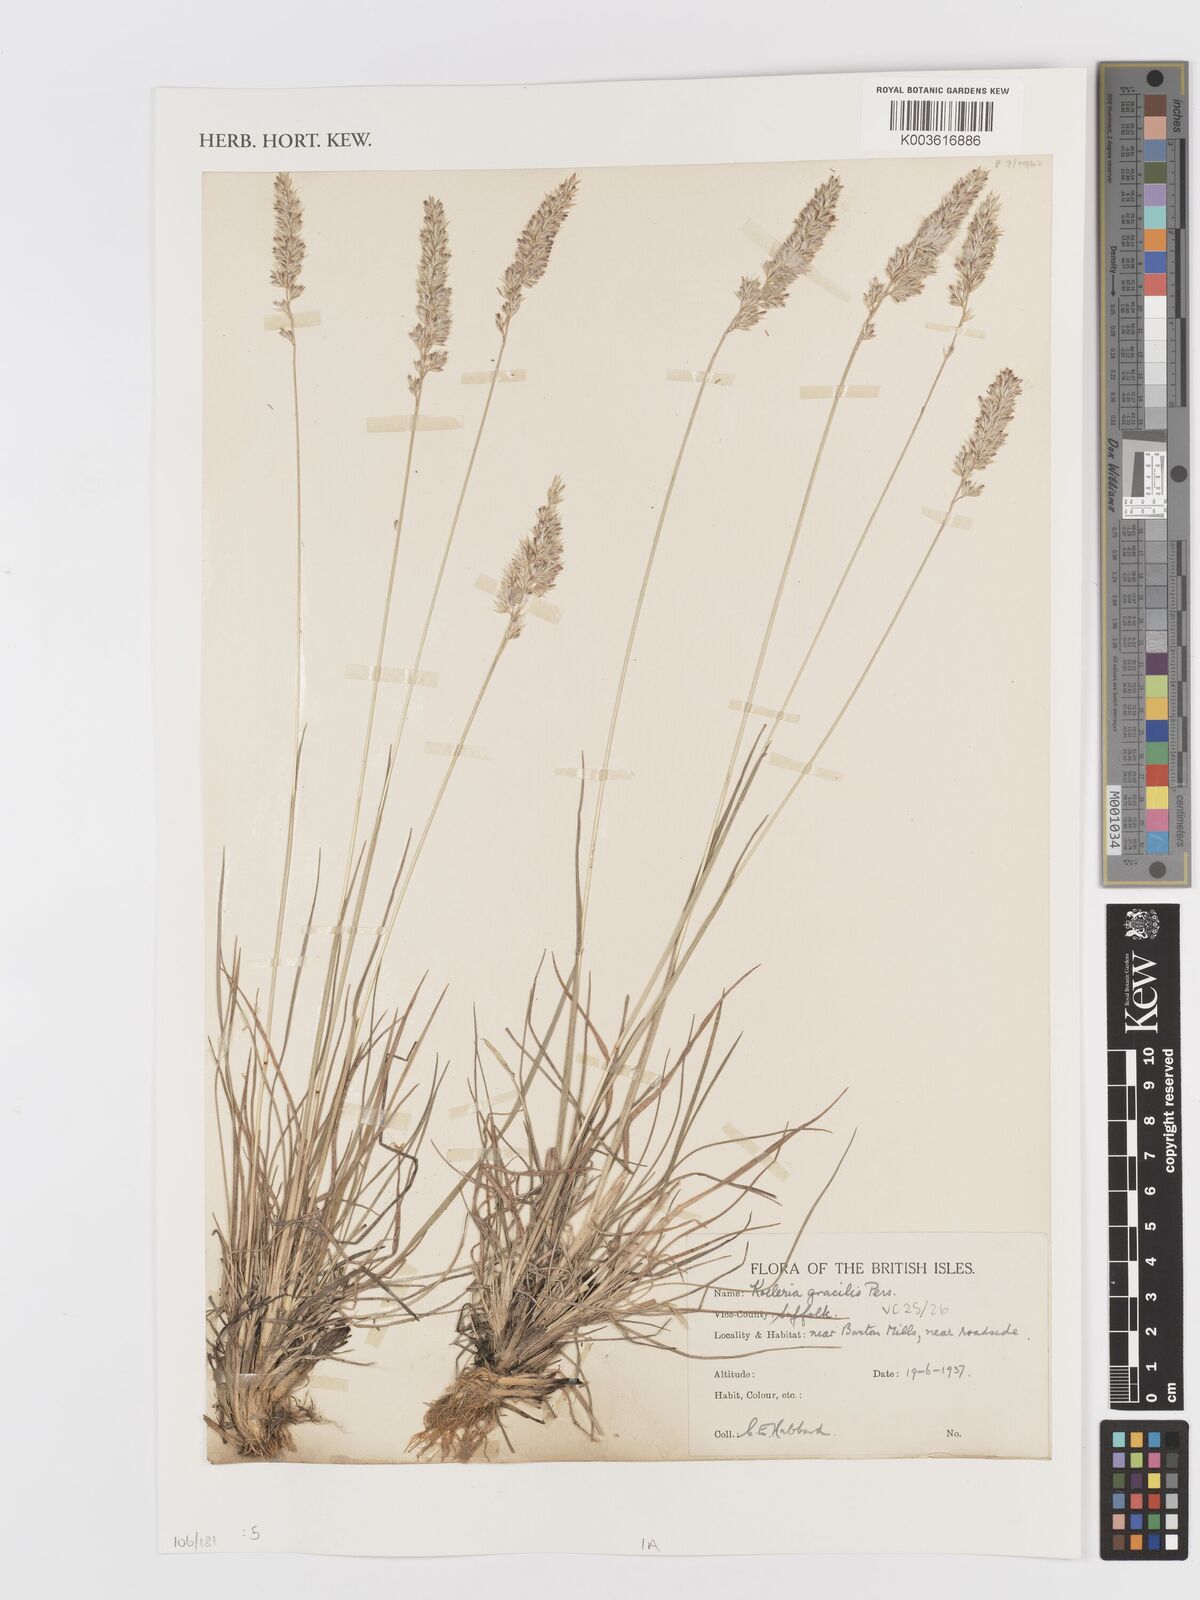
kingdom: Plantae
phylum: Tracheophyta
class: Liliopsida
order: Poales
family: Poaceae
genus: Koeleria
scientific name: Koeleria macrantha
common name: Crested hair-grass
